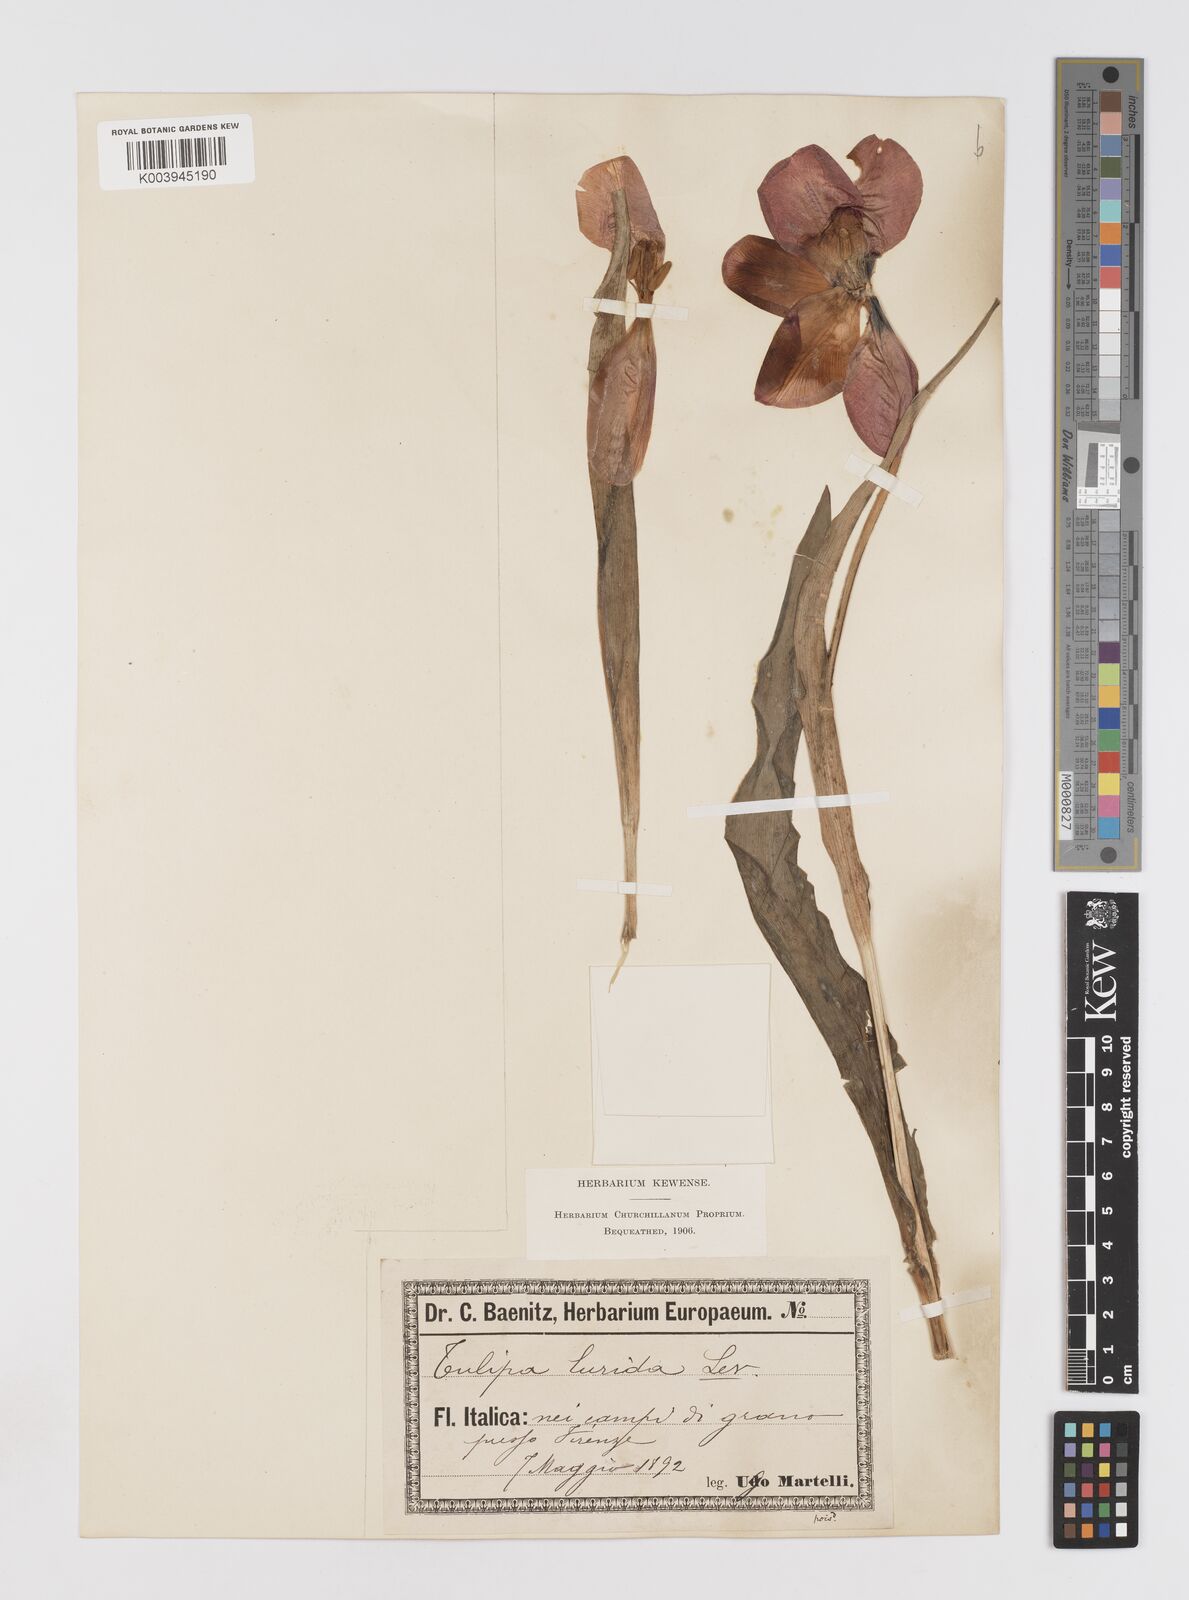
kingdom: Plantae
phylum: Tracheophyta
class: Liliopsida
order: Liliales
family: Liliaceae
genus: Tulipa
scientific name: Tulipa gesneriana
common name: Garden tulip
